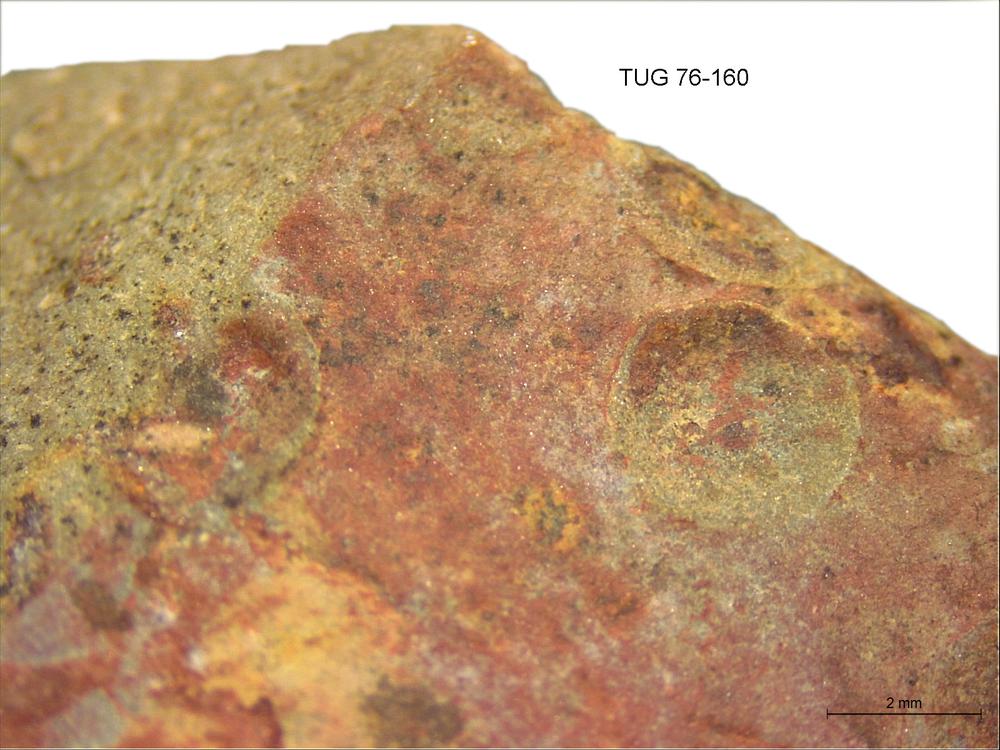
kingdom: Animalia
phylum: Brachiopoda
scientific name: Brachiopoda
